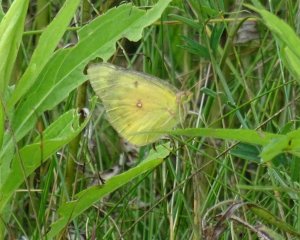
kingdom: Animalia
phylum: Arthropoda
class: Insecta
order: Lepidoptera
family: Pieridae
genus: Colias
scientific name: Colias eurytheme
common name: Orange Sulphur
